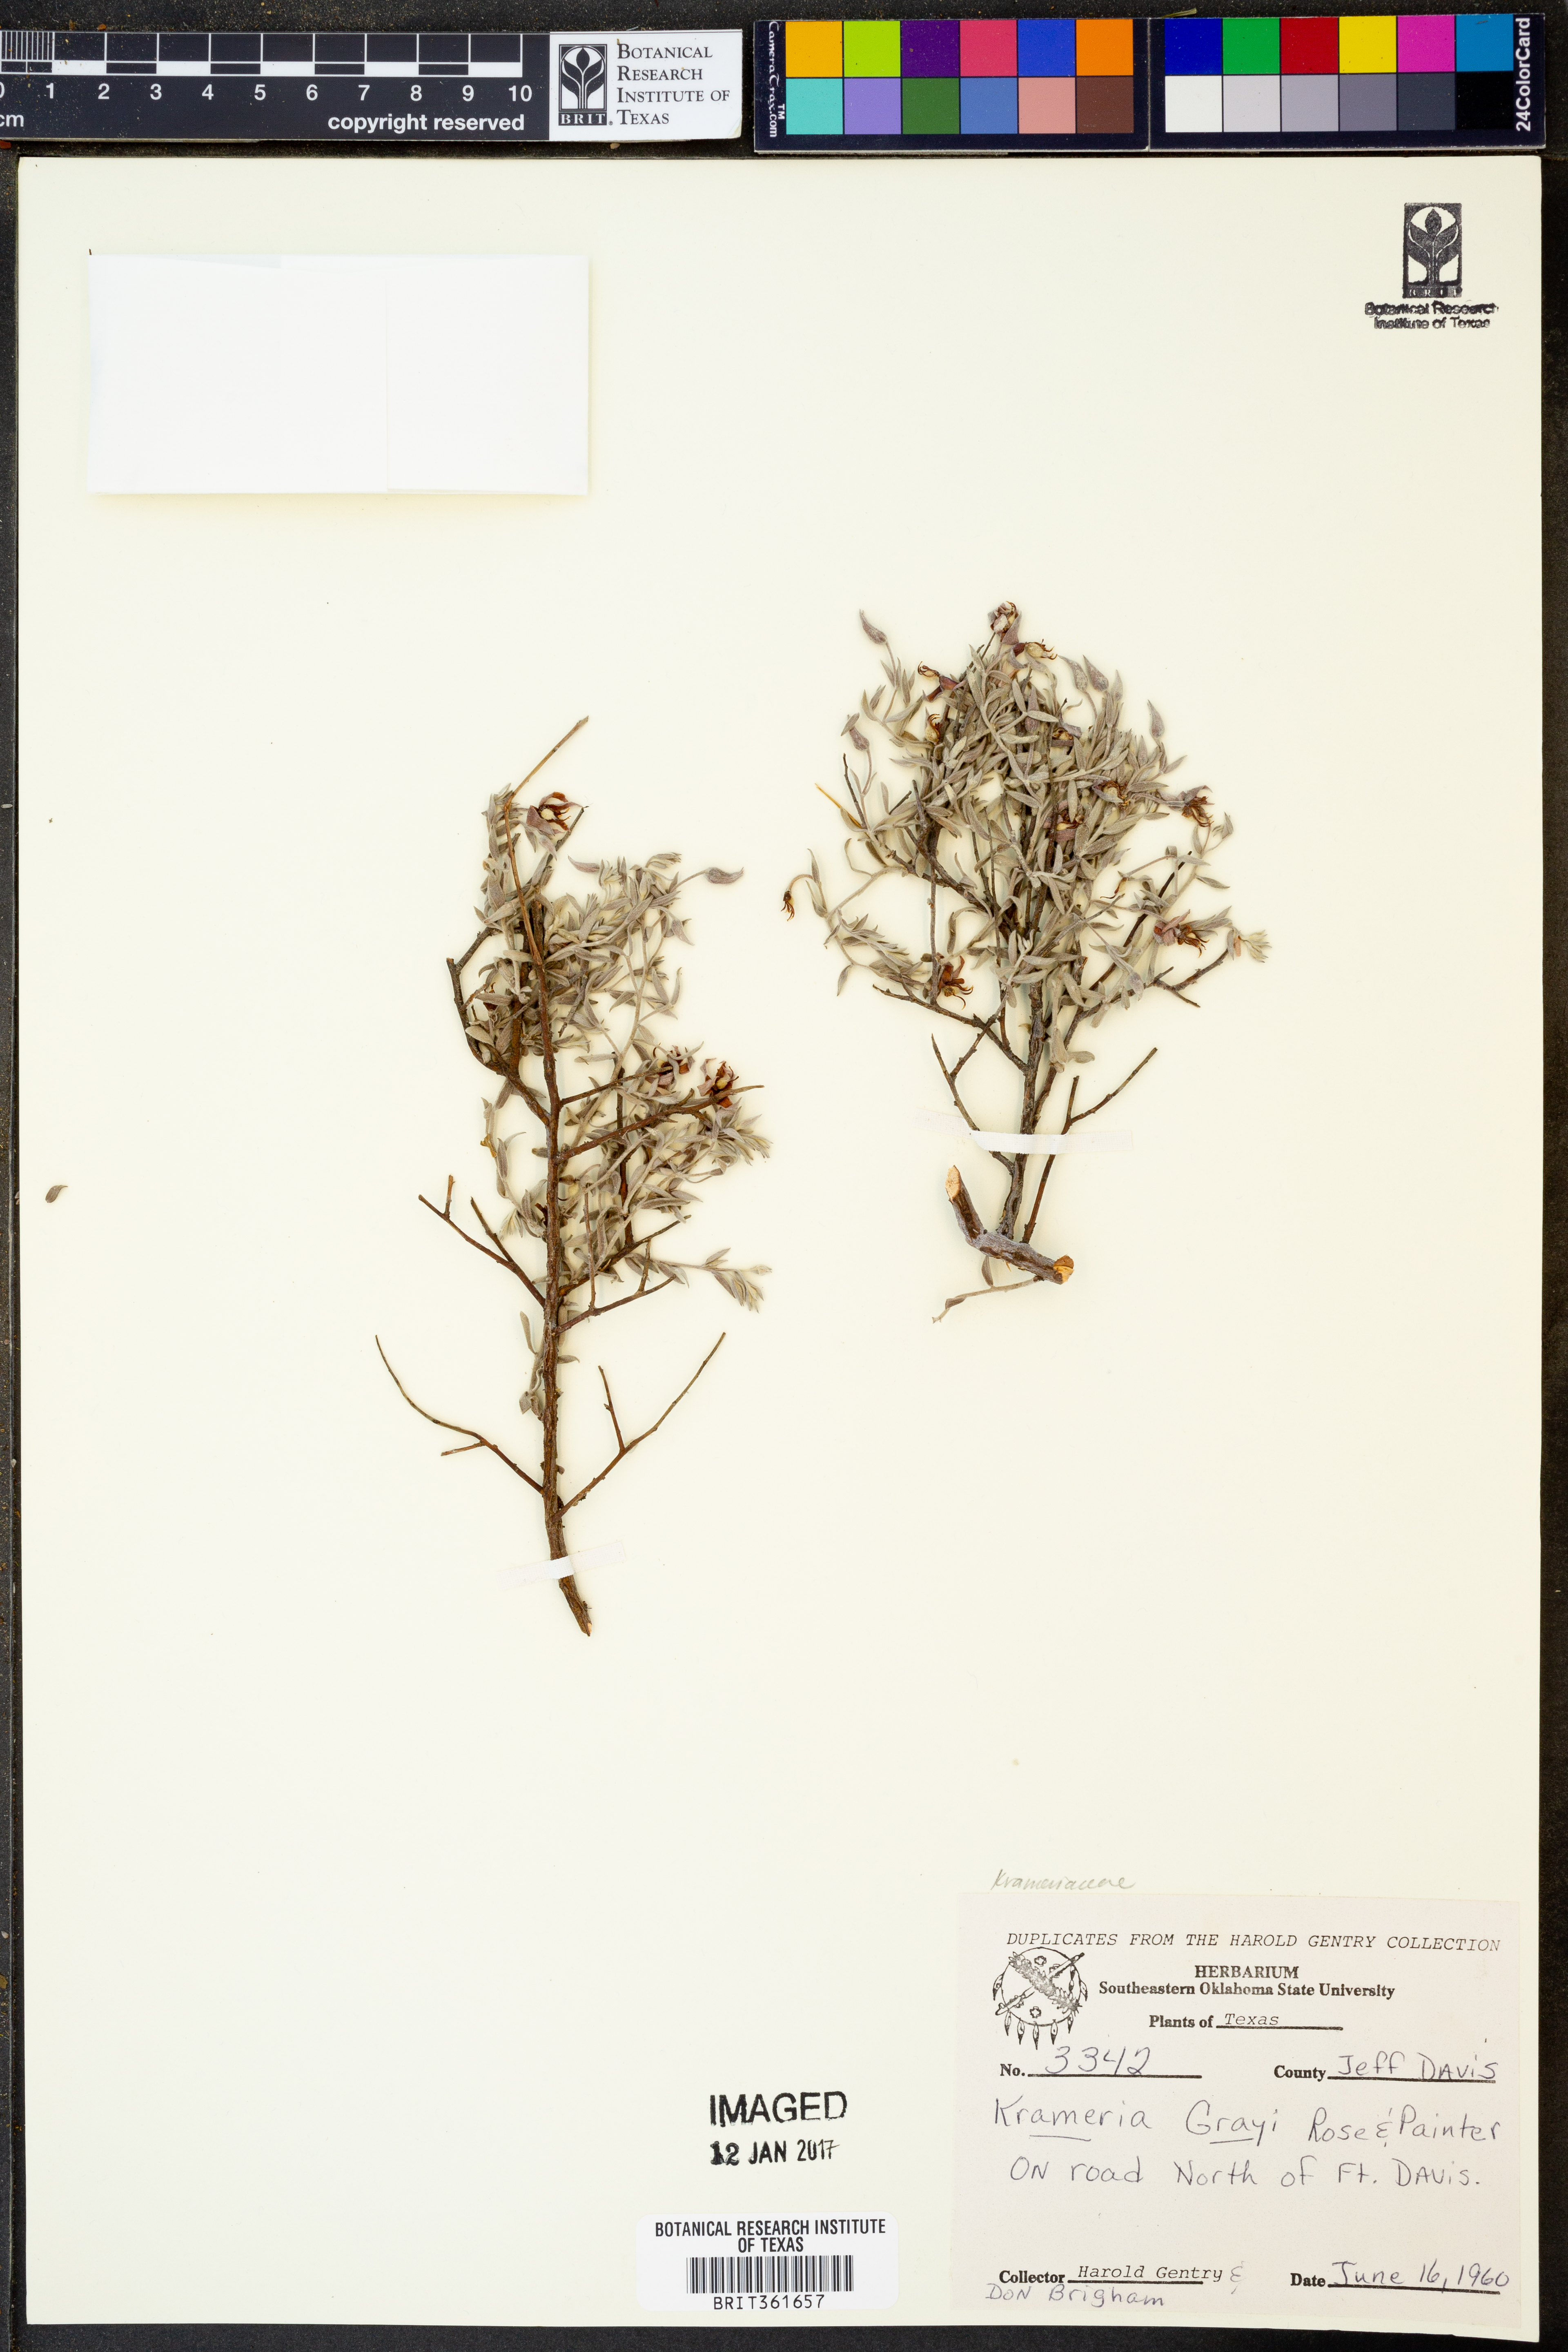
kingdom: Plantae
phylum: Tracheophyta
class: Magnoliopsida
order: Zygophyllales
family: Krameriaceae
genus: Krameria
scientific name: Krameria bicolor
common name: White ratany
